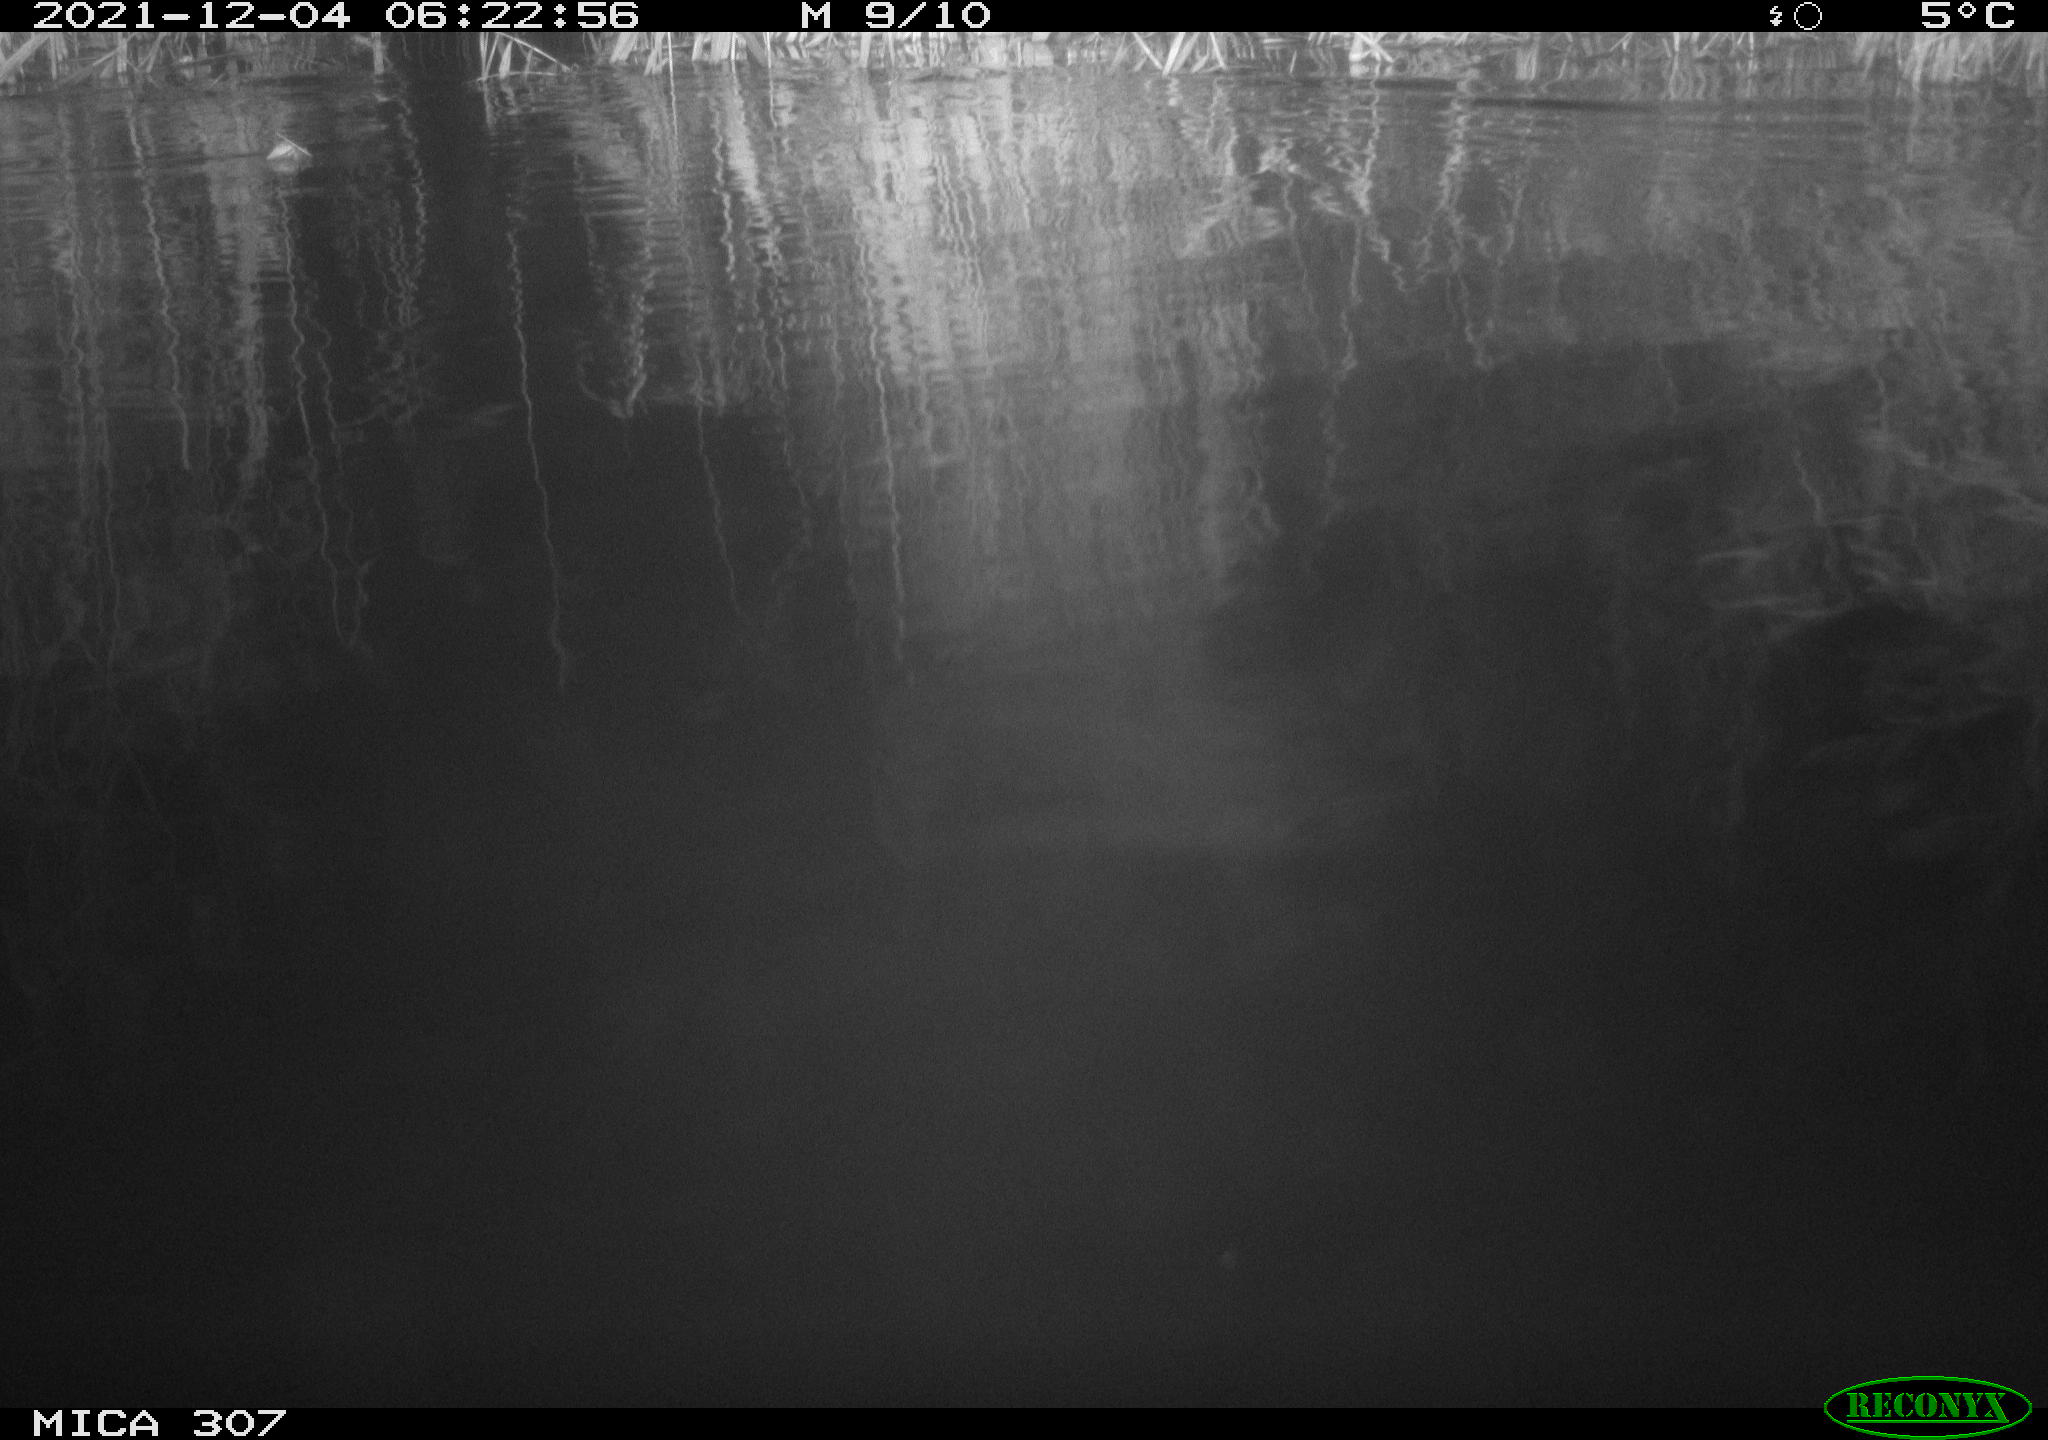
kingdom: Animalia
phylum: Chordata
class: Mammalia
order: Rodentia
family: Cricetidae
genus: Ondatra
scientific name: Ondatra zibethicus
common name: Muskrat
